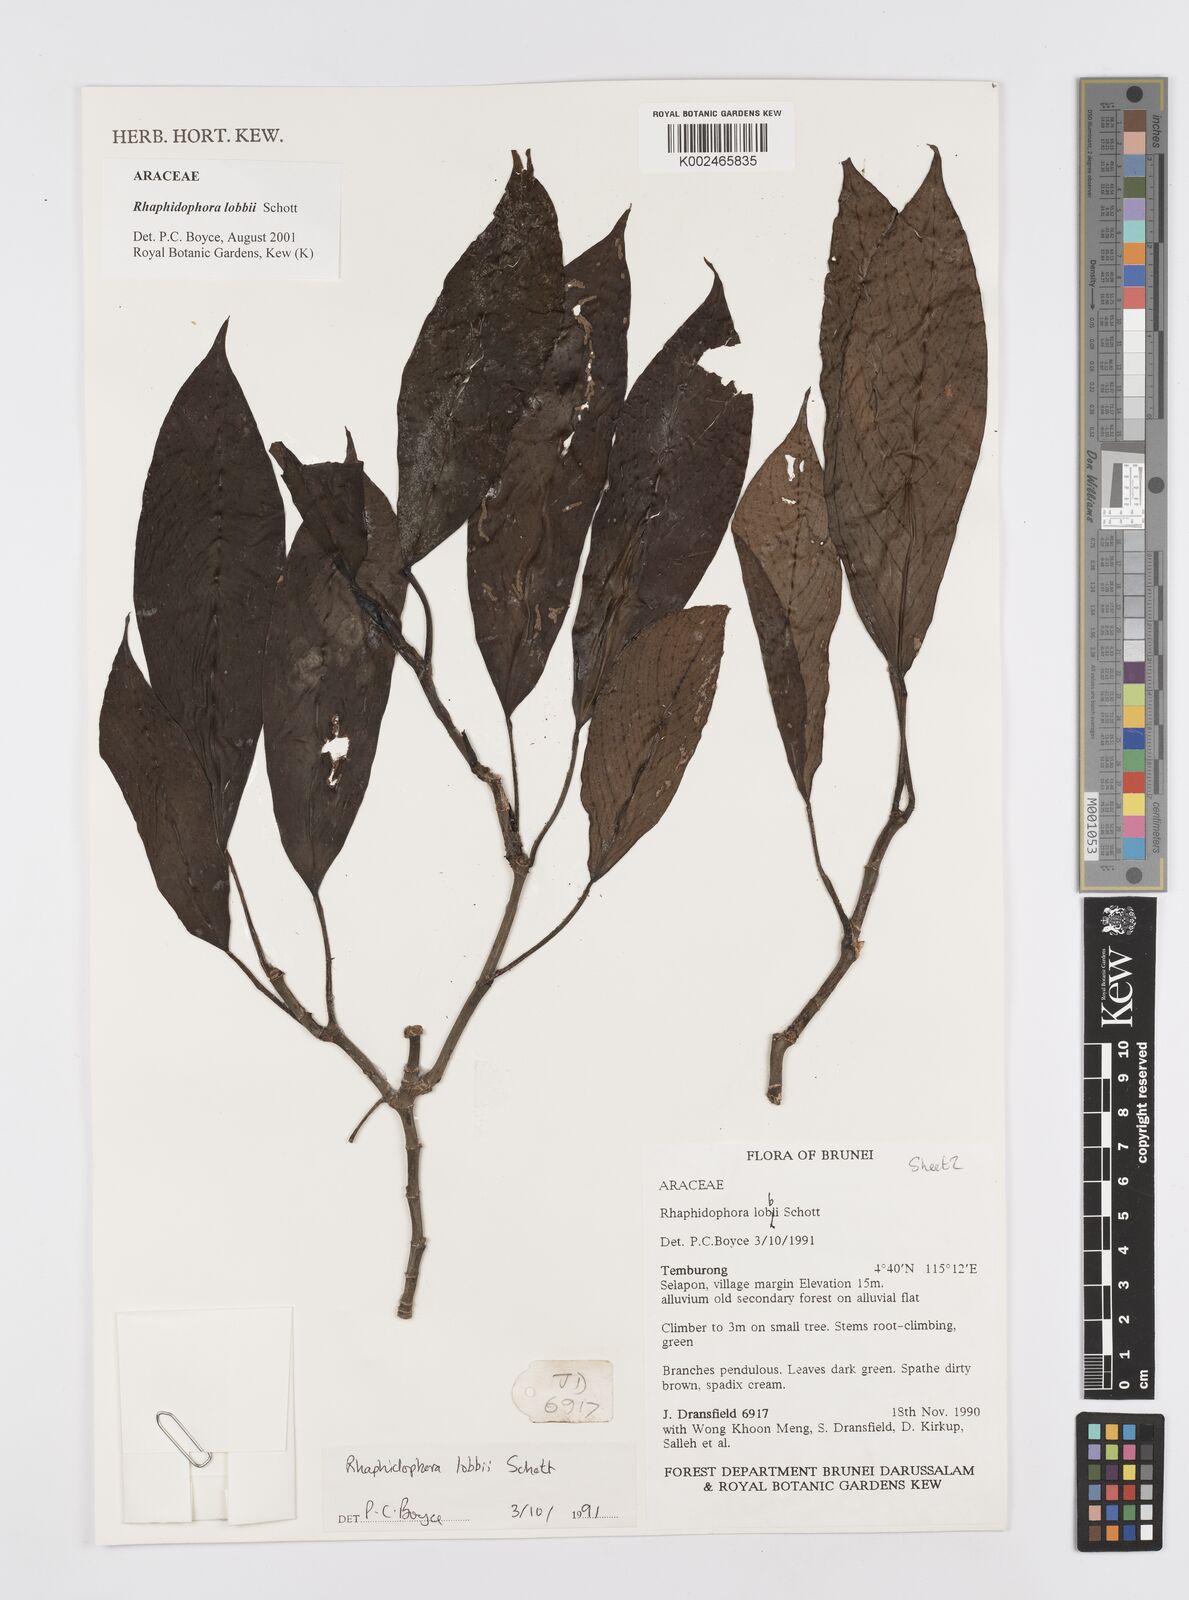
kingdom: Plantae
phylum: Tracheophyta
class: Liliopsida
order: Alismatales
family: Araceae
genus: Rhaphidophora
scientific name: Rhaphidophora lobbii
